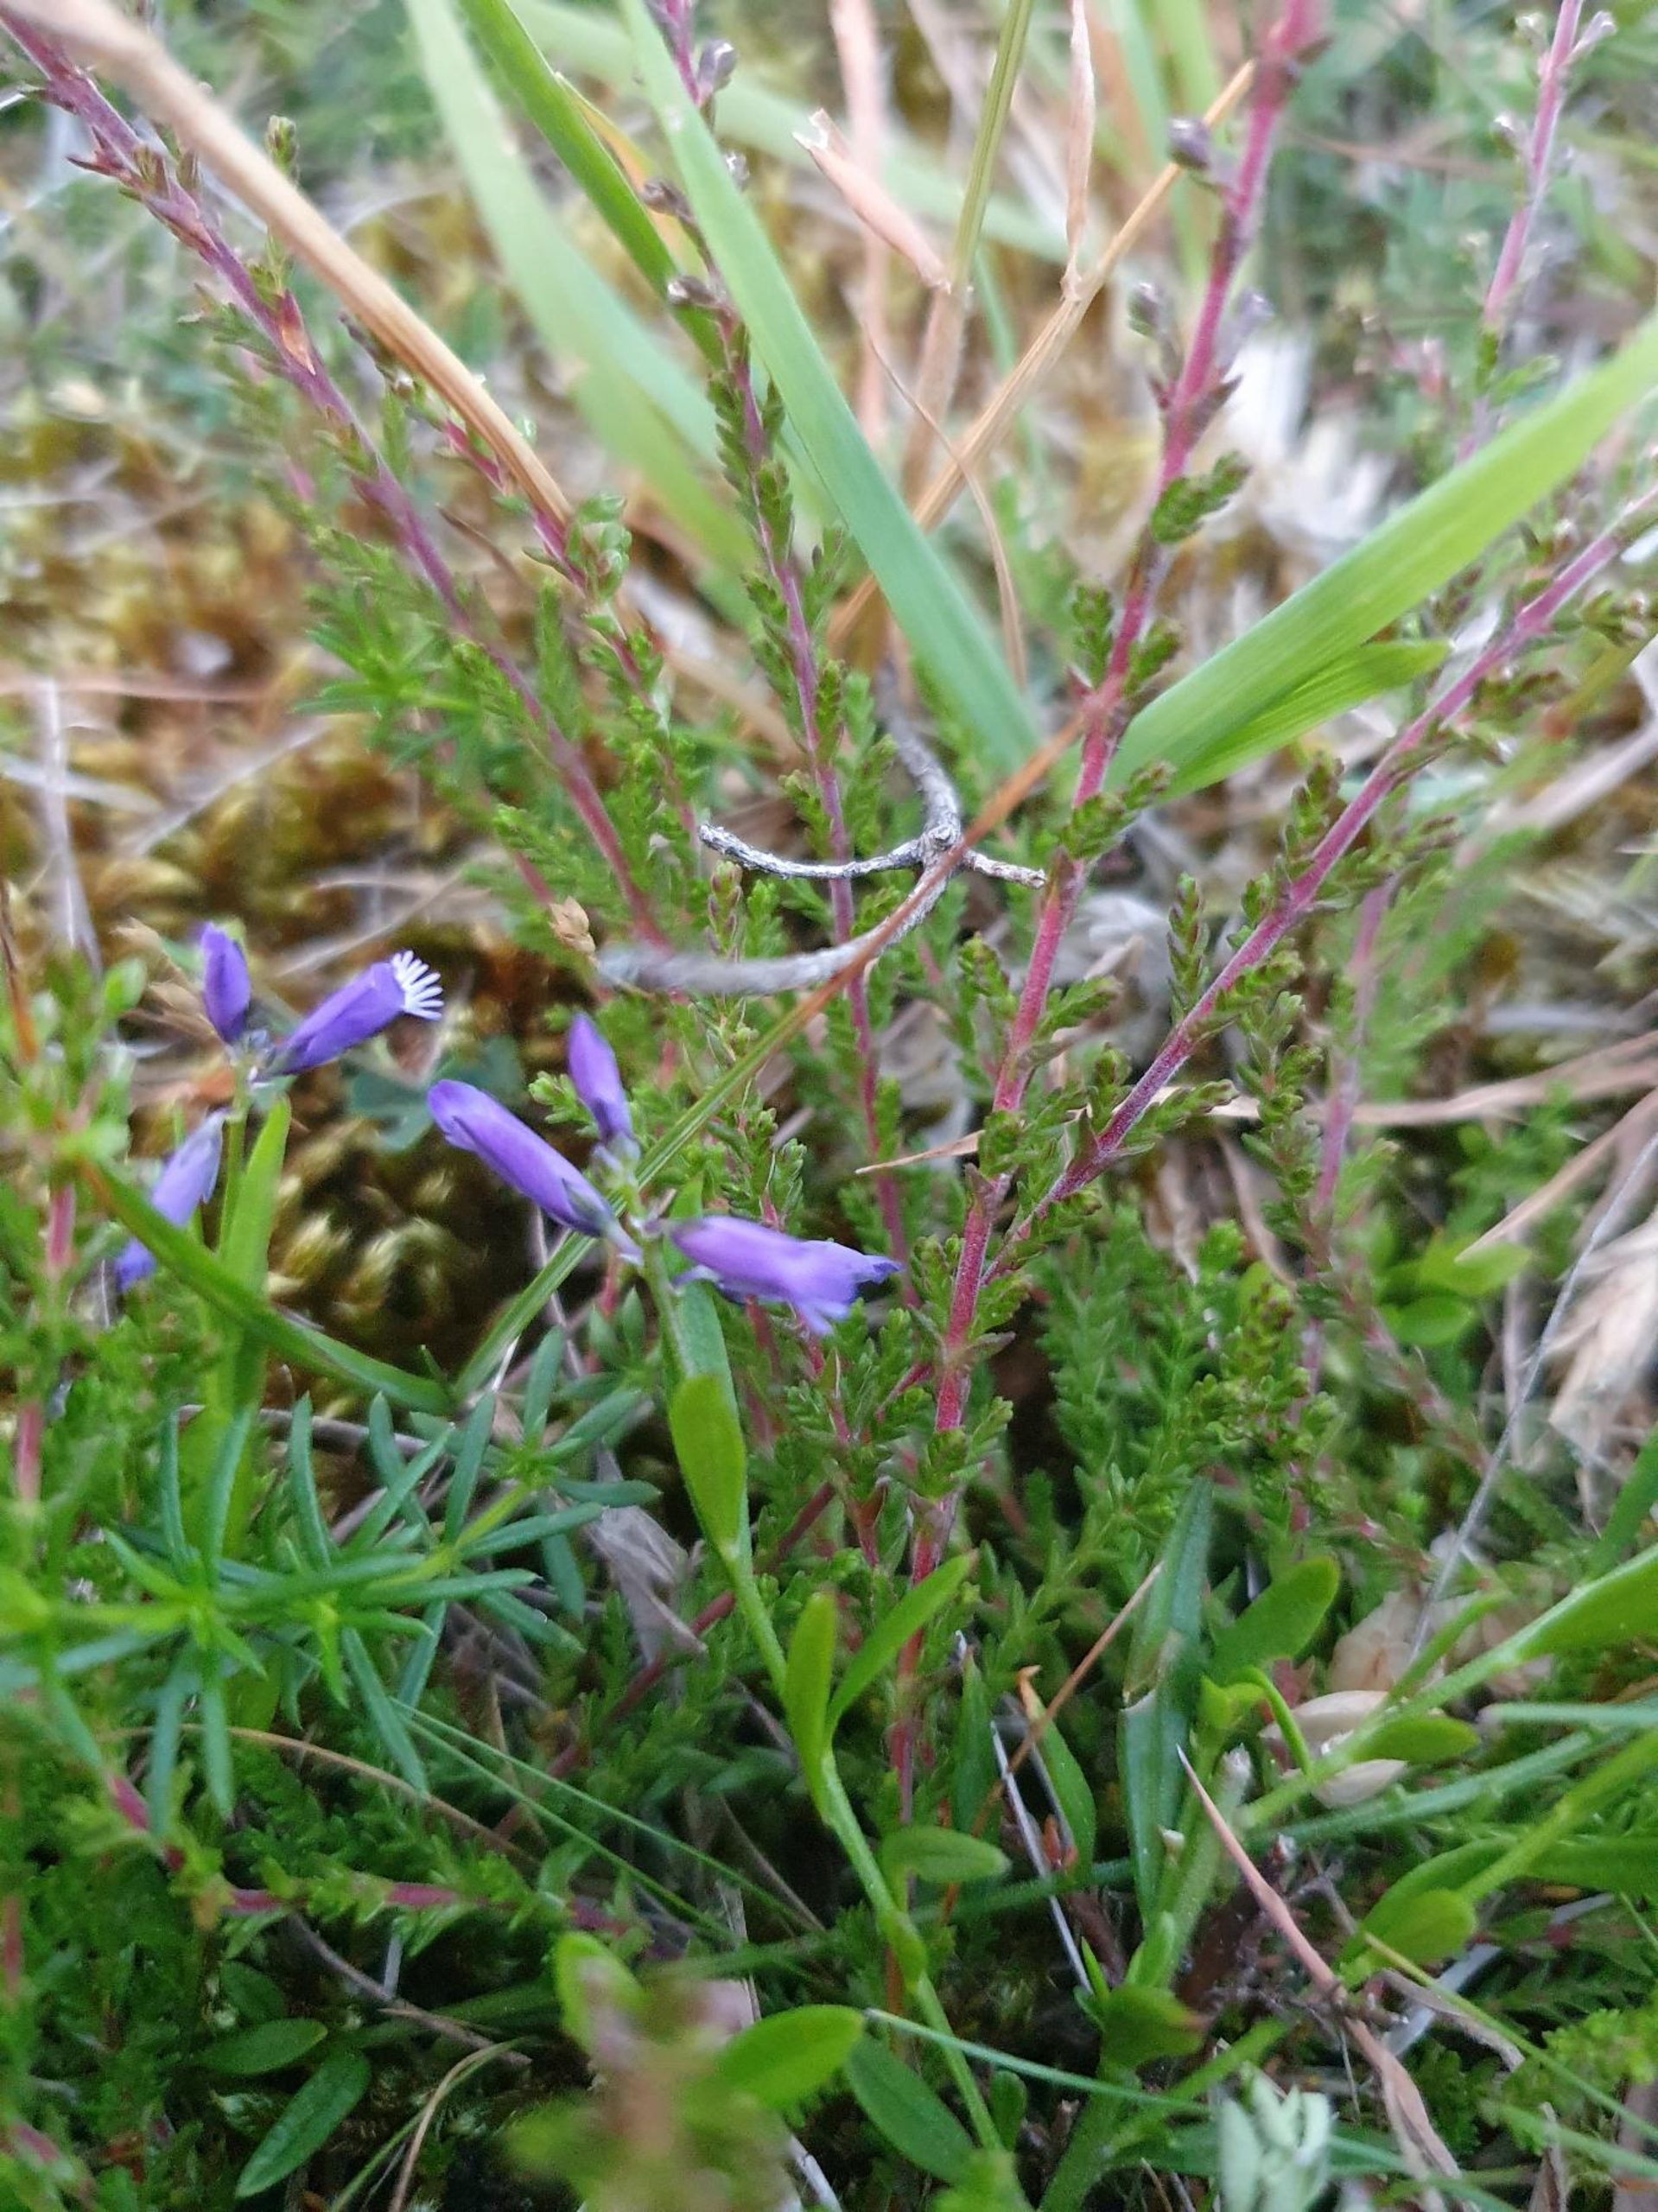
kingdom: Plantae
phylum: Tracheophyta
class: Magnoliopsida
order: Fabales
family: Polygalaceae
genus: Polygala
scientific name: Polygala vulgaris
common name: Almindelig mælkeurt
